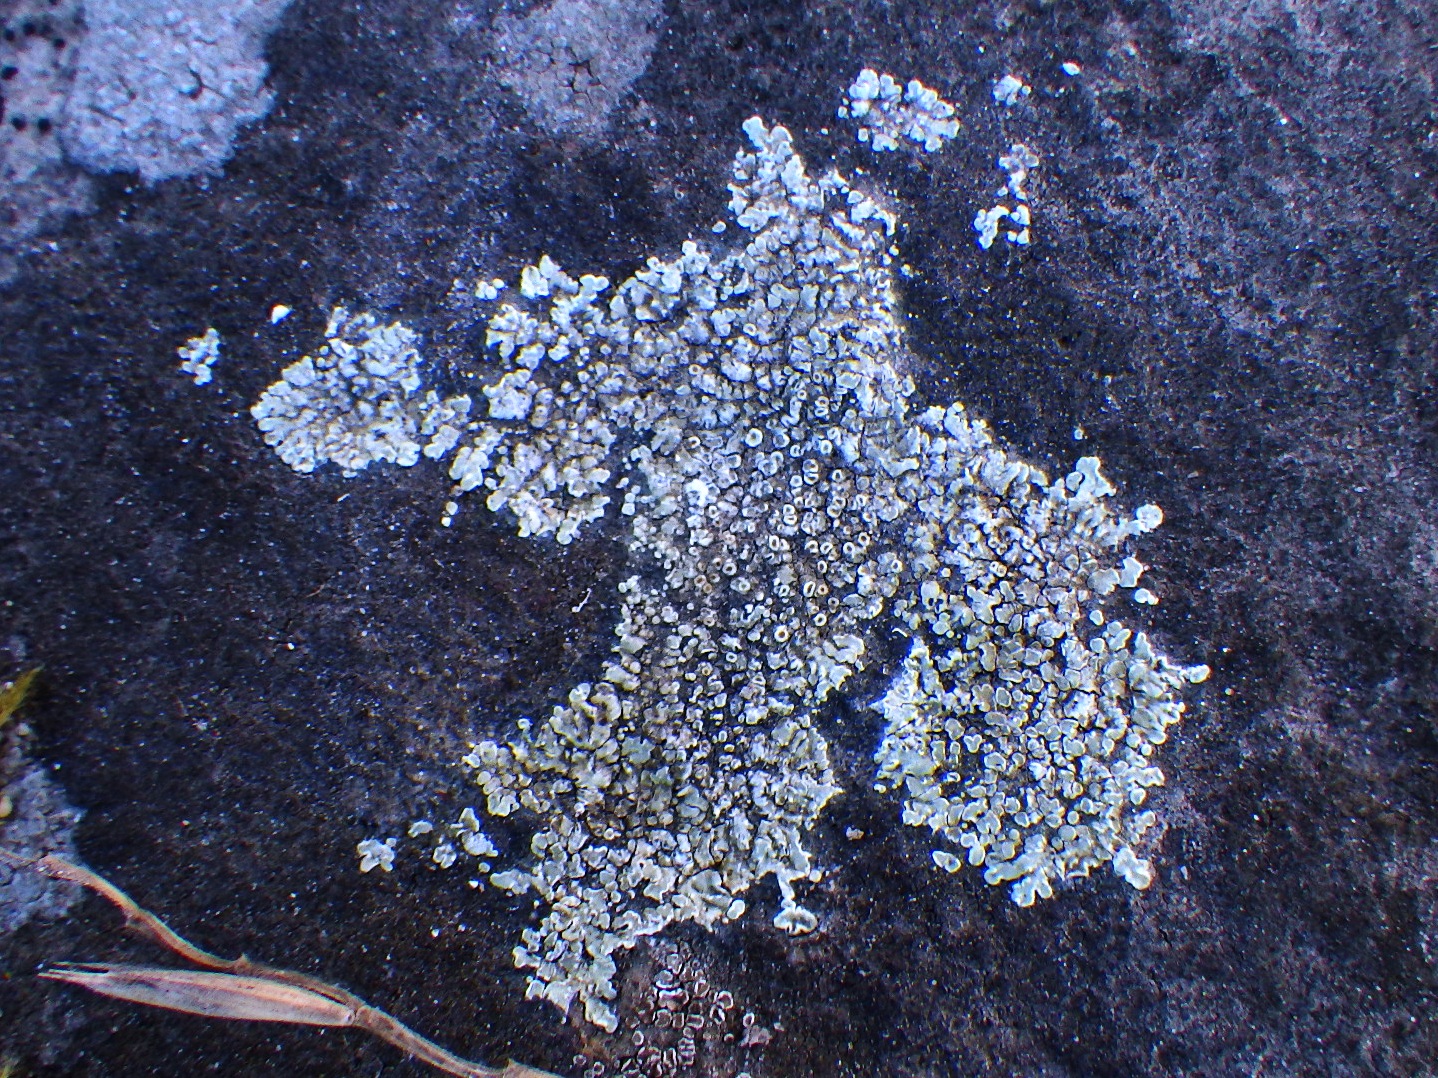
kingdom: Fungi
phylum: Ascomycota
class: Lecanoromycetes
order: Lecanorales
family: Lecanoraceae
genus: Protoparmeliopsis
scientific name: Protoparmeliopsis muralis
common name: randfliget kantskivelav
